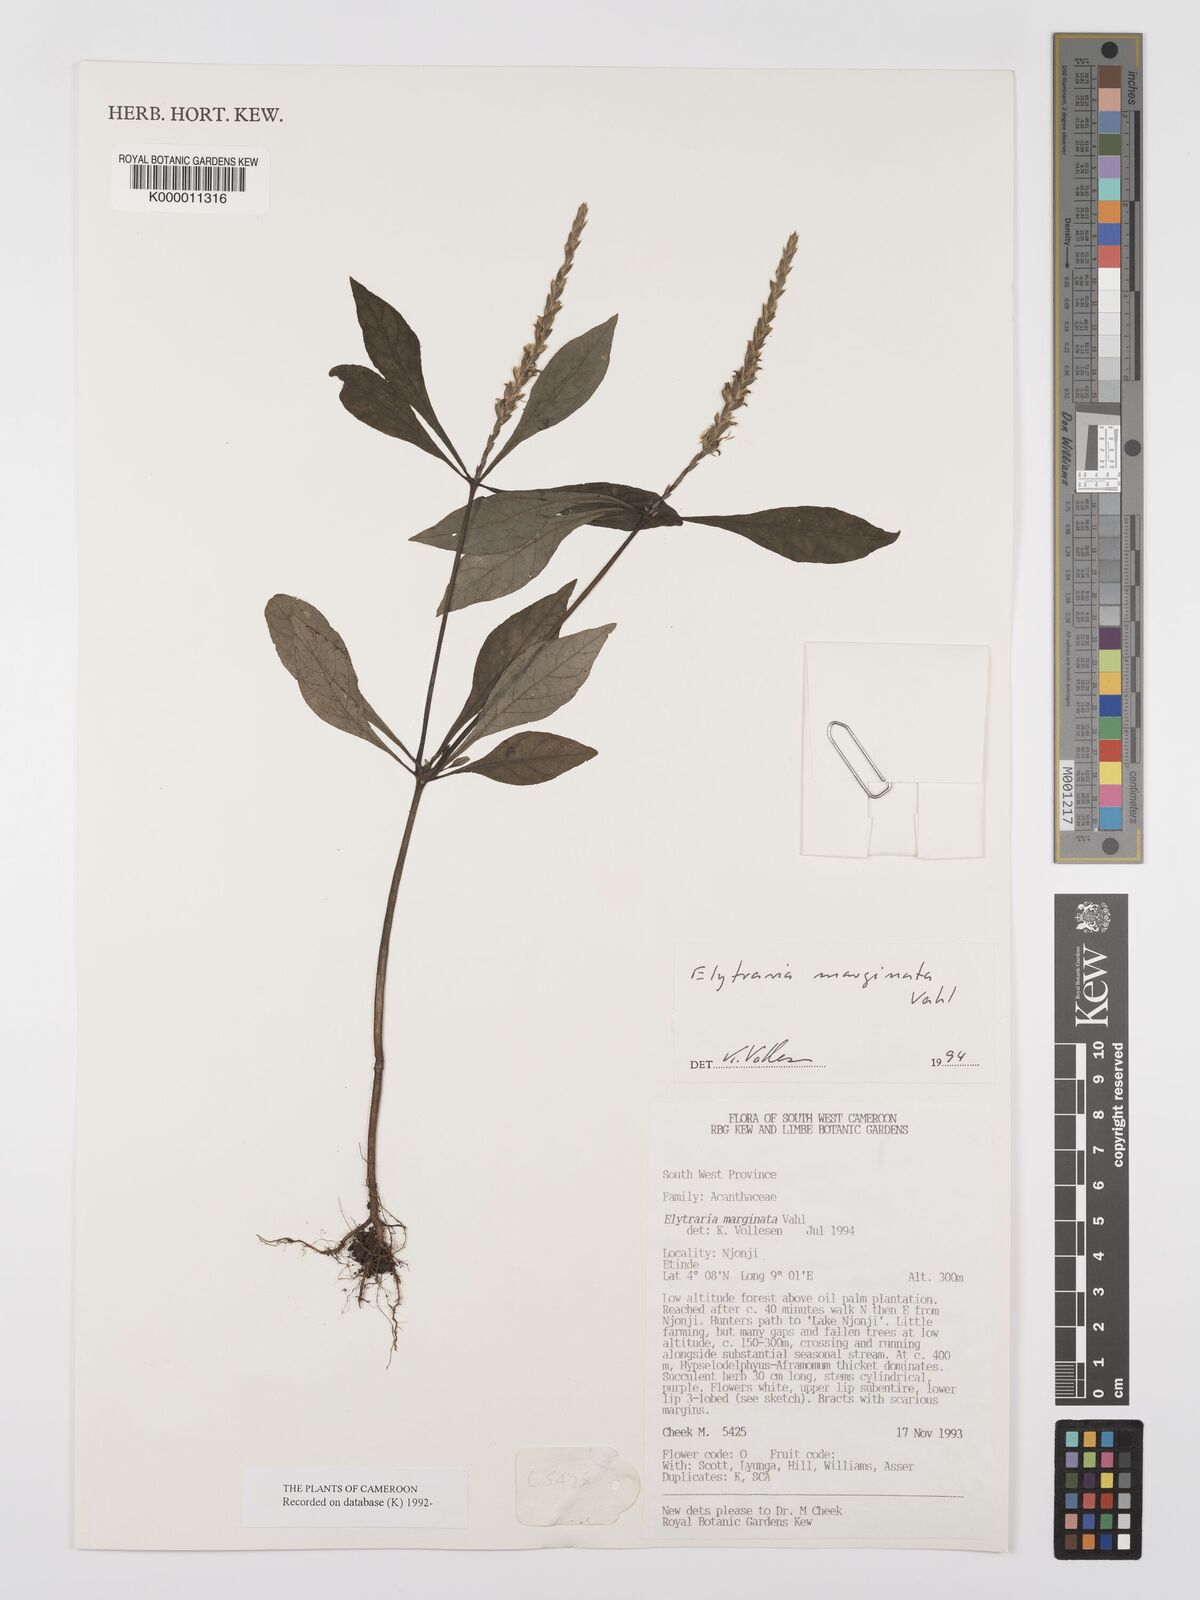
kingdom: Plantae
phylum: Tracheophyta
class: Magnoliopsida
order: Lamiales
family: Acanthaceae
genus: Elytraria
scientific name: Elytraria marginata
